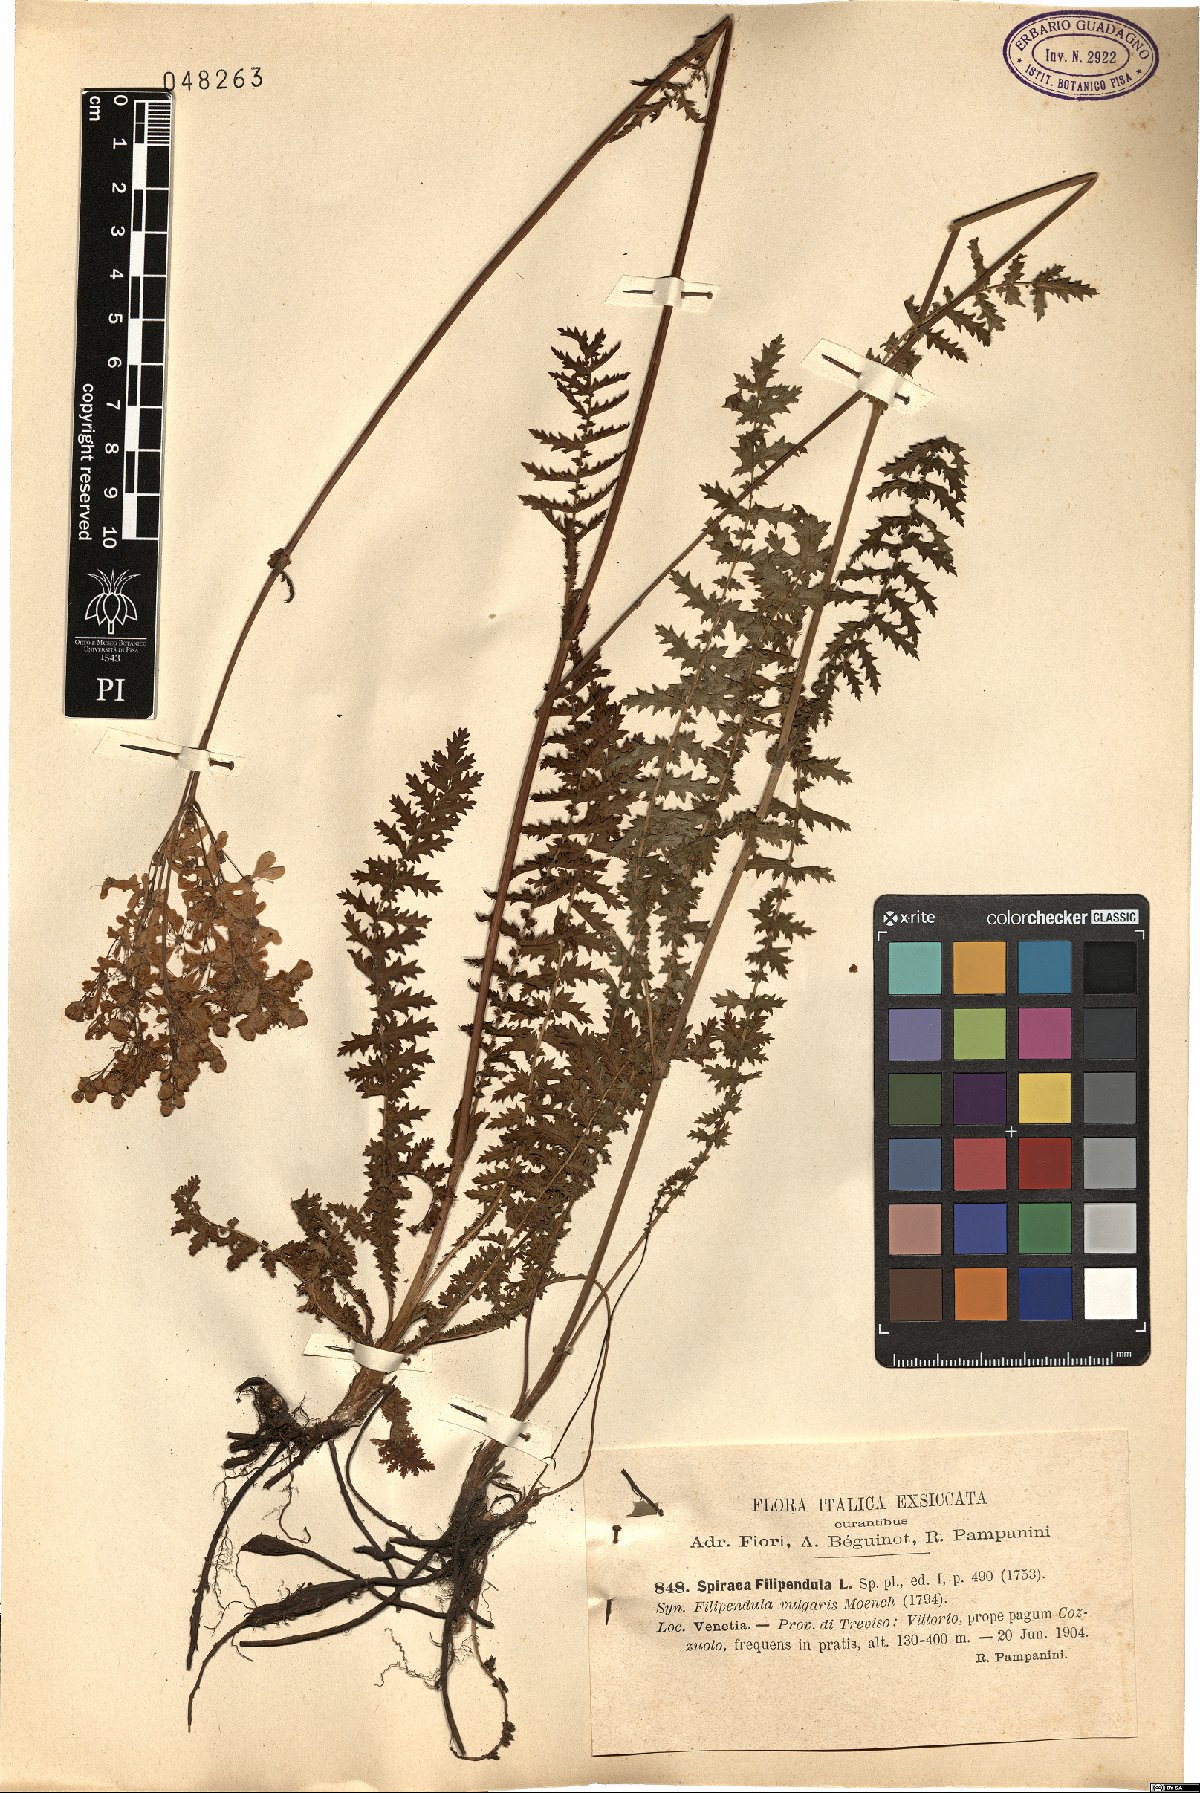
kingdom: Plantae
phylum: Tracheophyta
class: Magnoliopsida
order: Rosales
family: Rosaceae
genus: Filipendula
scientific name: Filipendula vulgaris
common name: Dropwort
